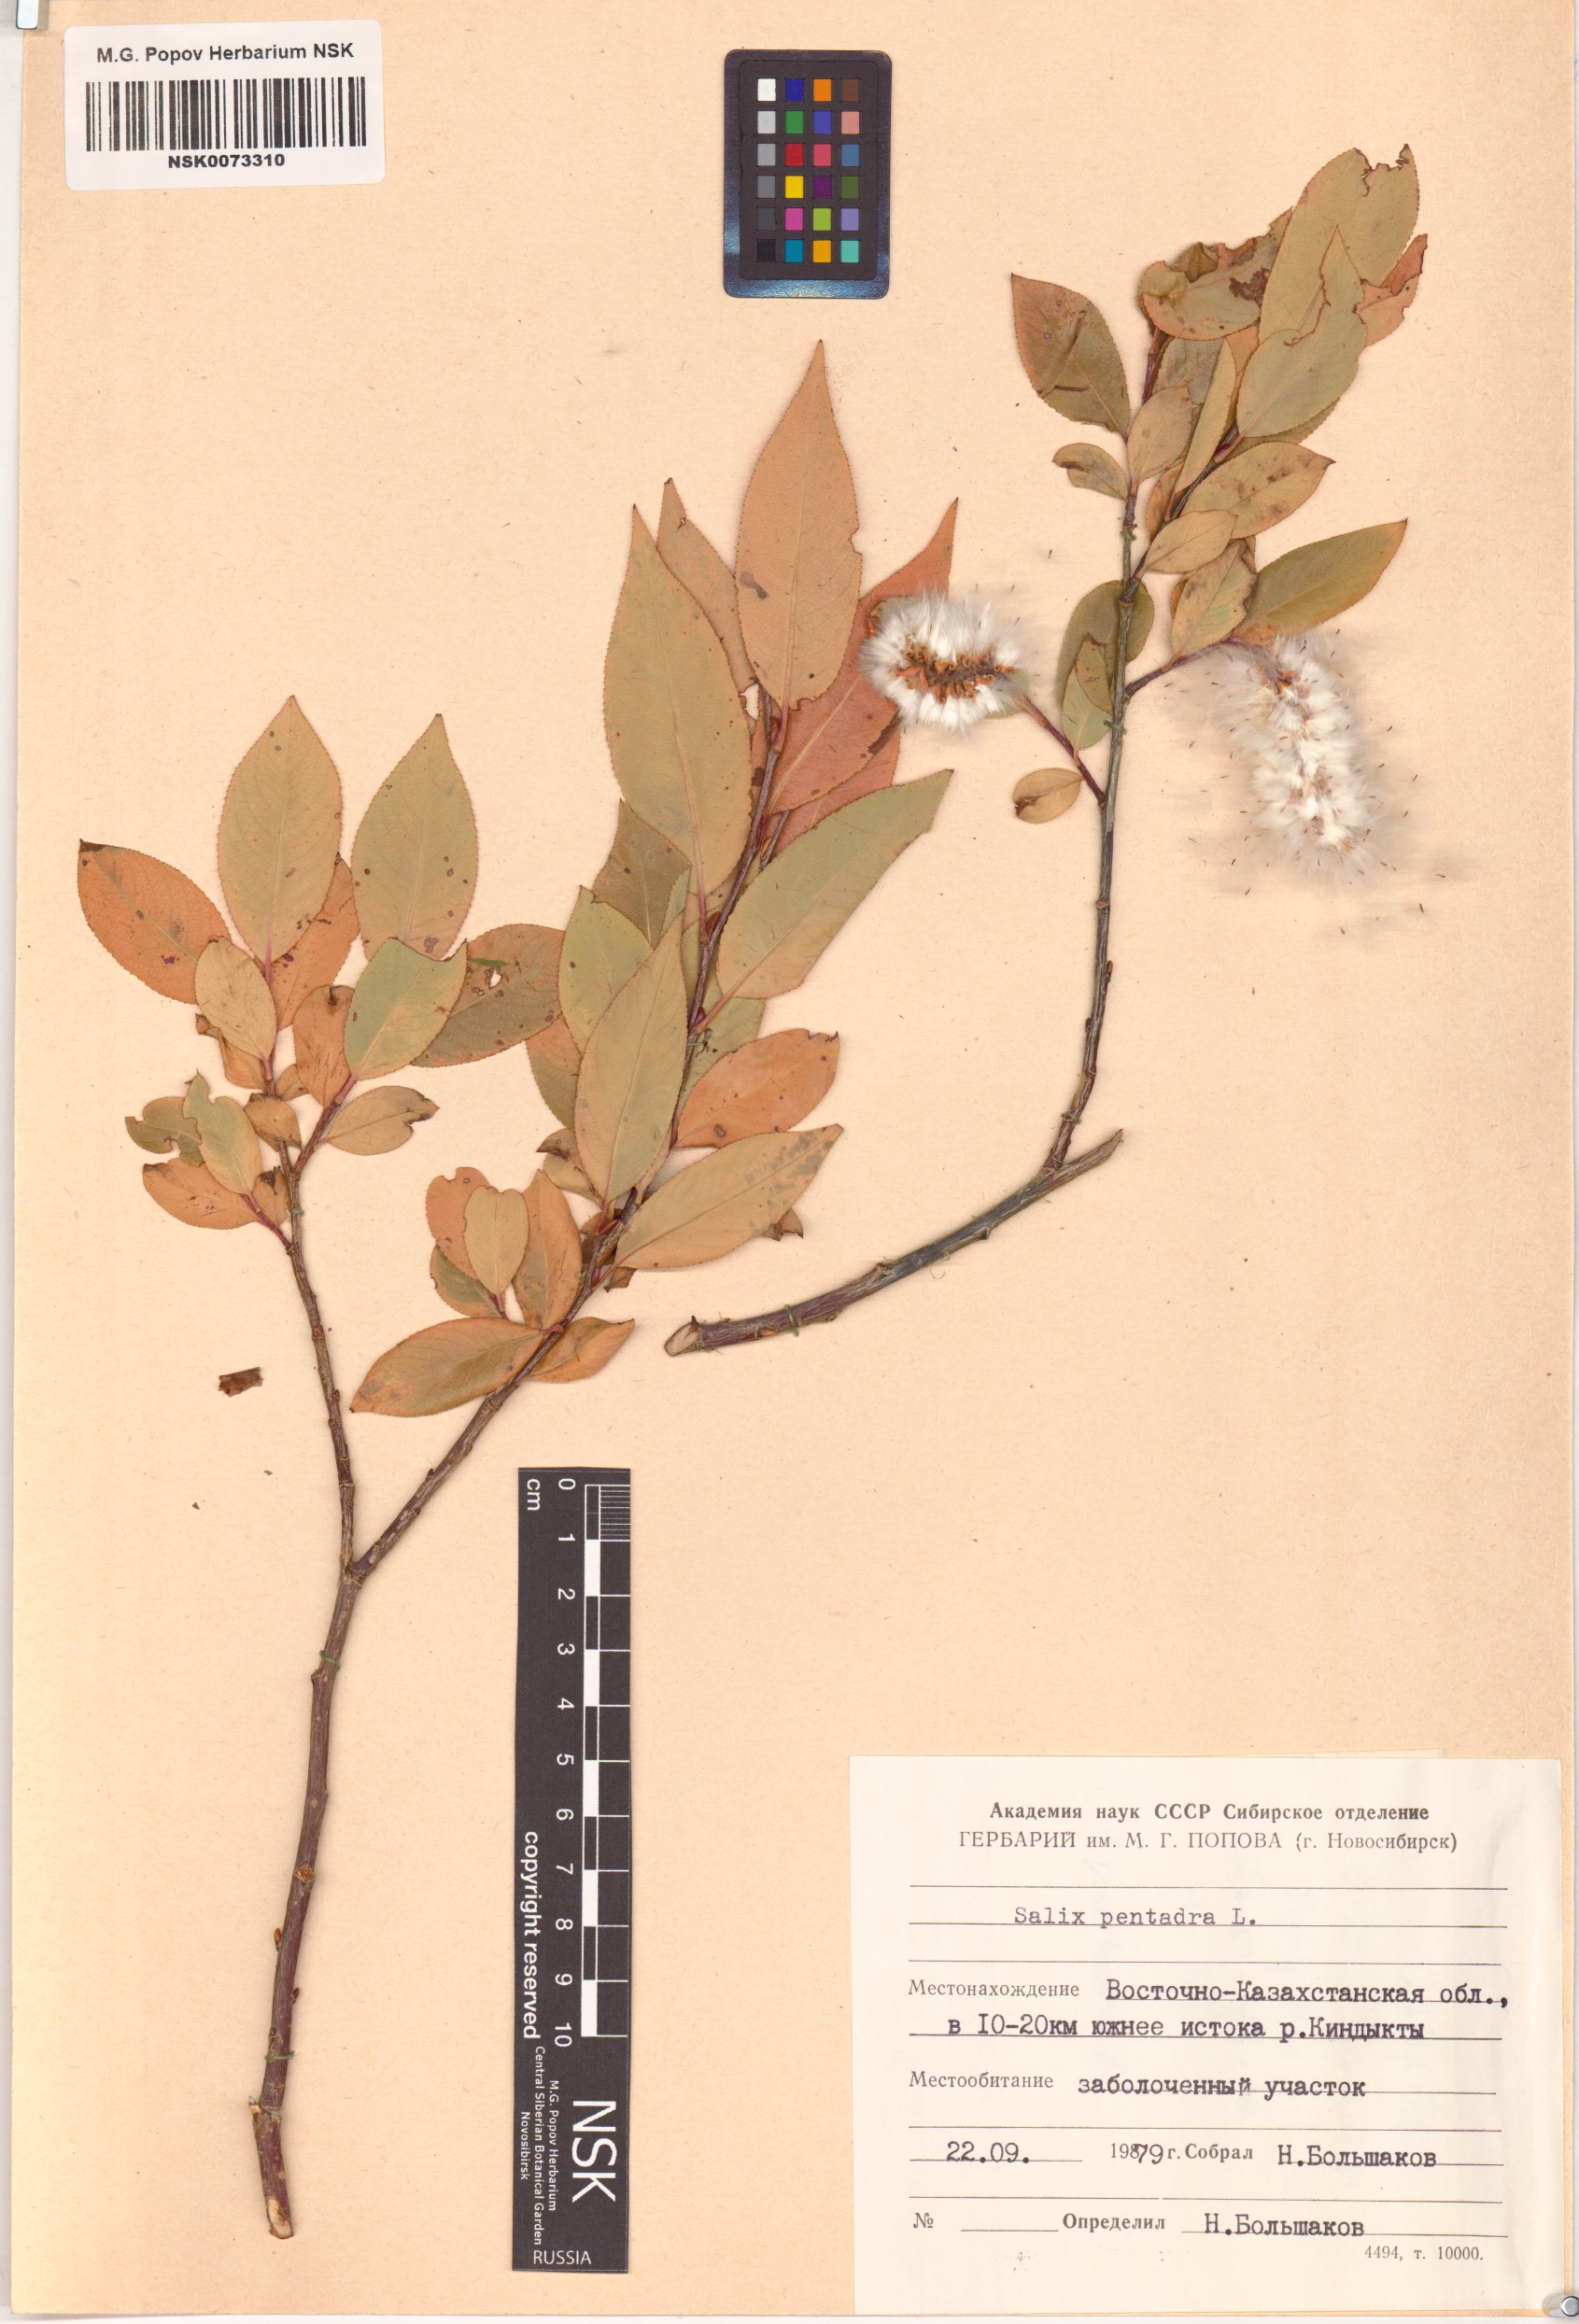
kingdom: Plantae
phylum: Tracheophyta
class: Magnoliopsida
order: Malpighiales
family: Salicaceae
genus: Salix
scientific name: Salix pentandra
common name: Bay willow
